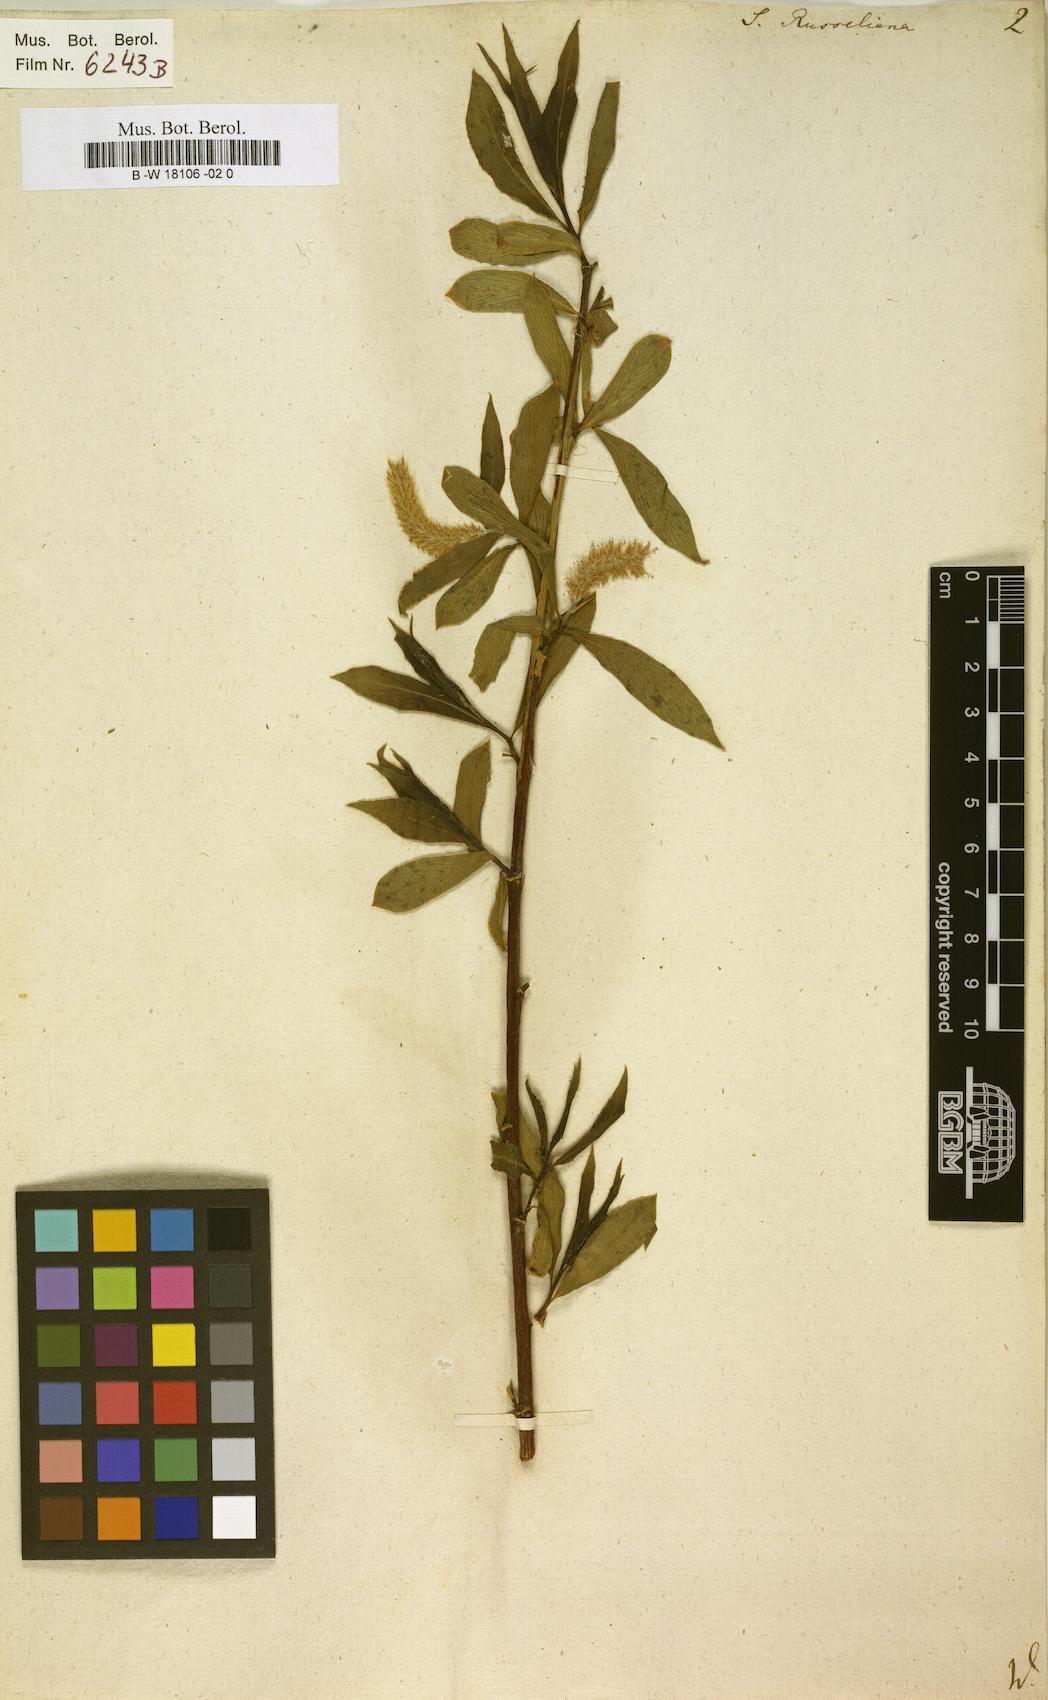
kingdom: Plantae
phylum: Tracheophyta
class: Magnoliopsida
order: Malpighiales
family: Salicaceae
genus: Salix
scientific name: Salix rubens
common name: Hybrid crack willow
